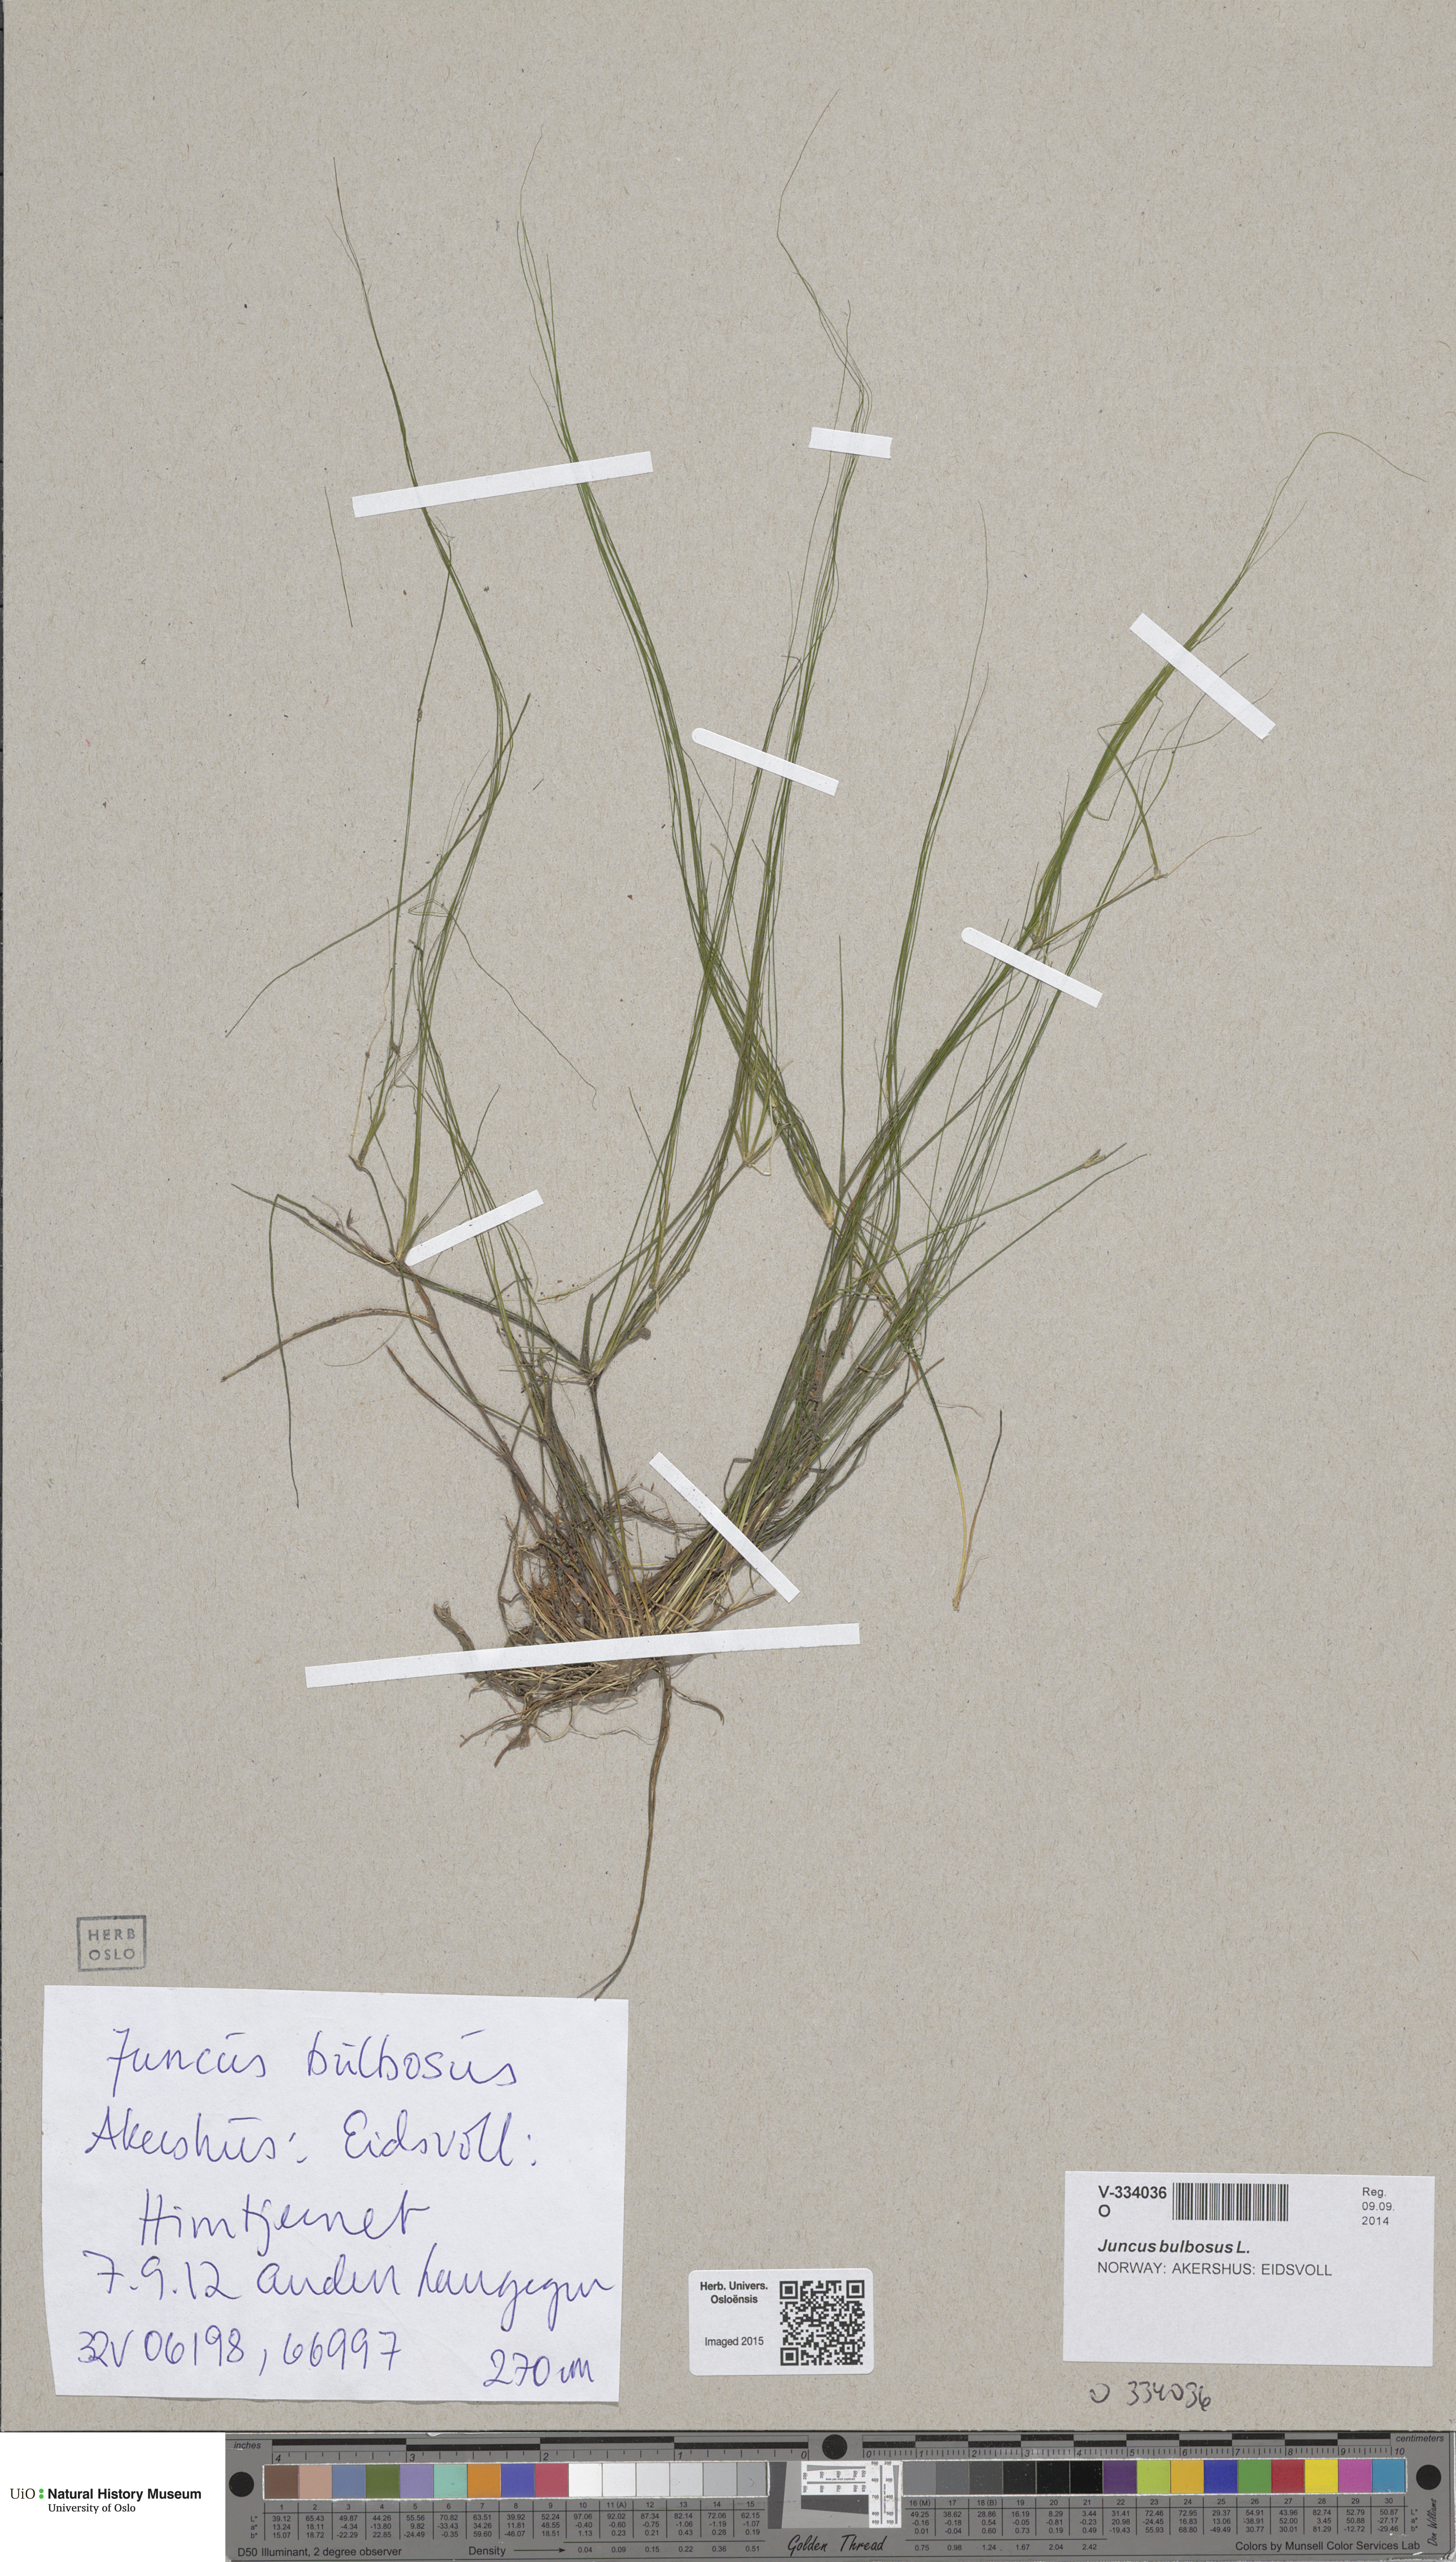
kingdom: Plantae
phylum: Tracheophyta
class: Liliopsida
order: Poales
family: Juncaceae
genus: Juncus
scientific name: Juncus bulbosus
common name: Bulbous rush
